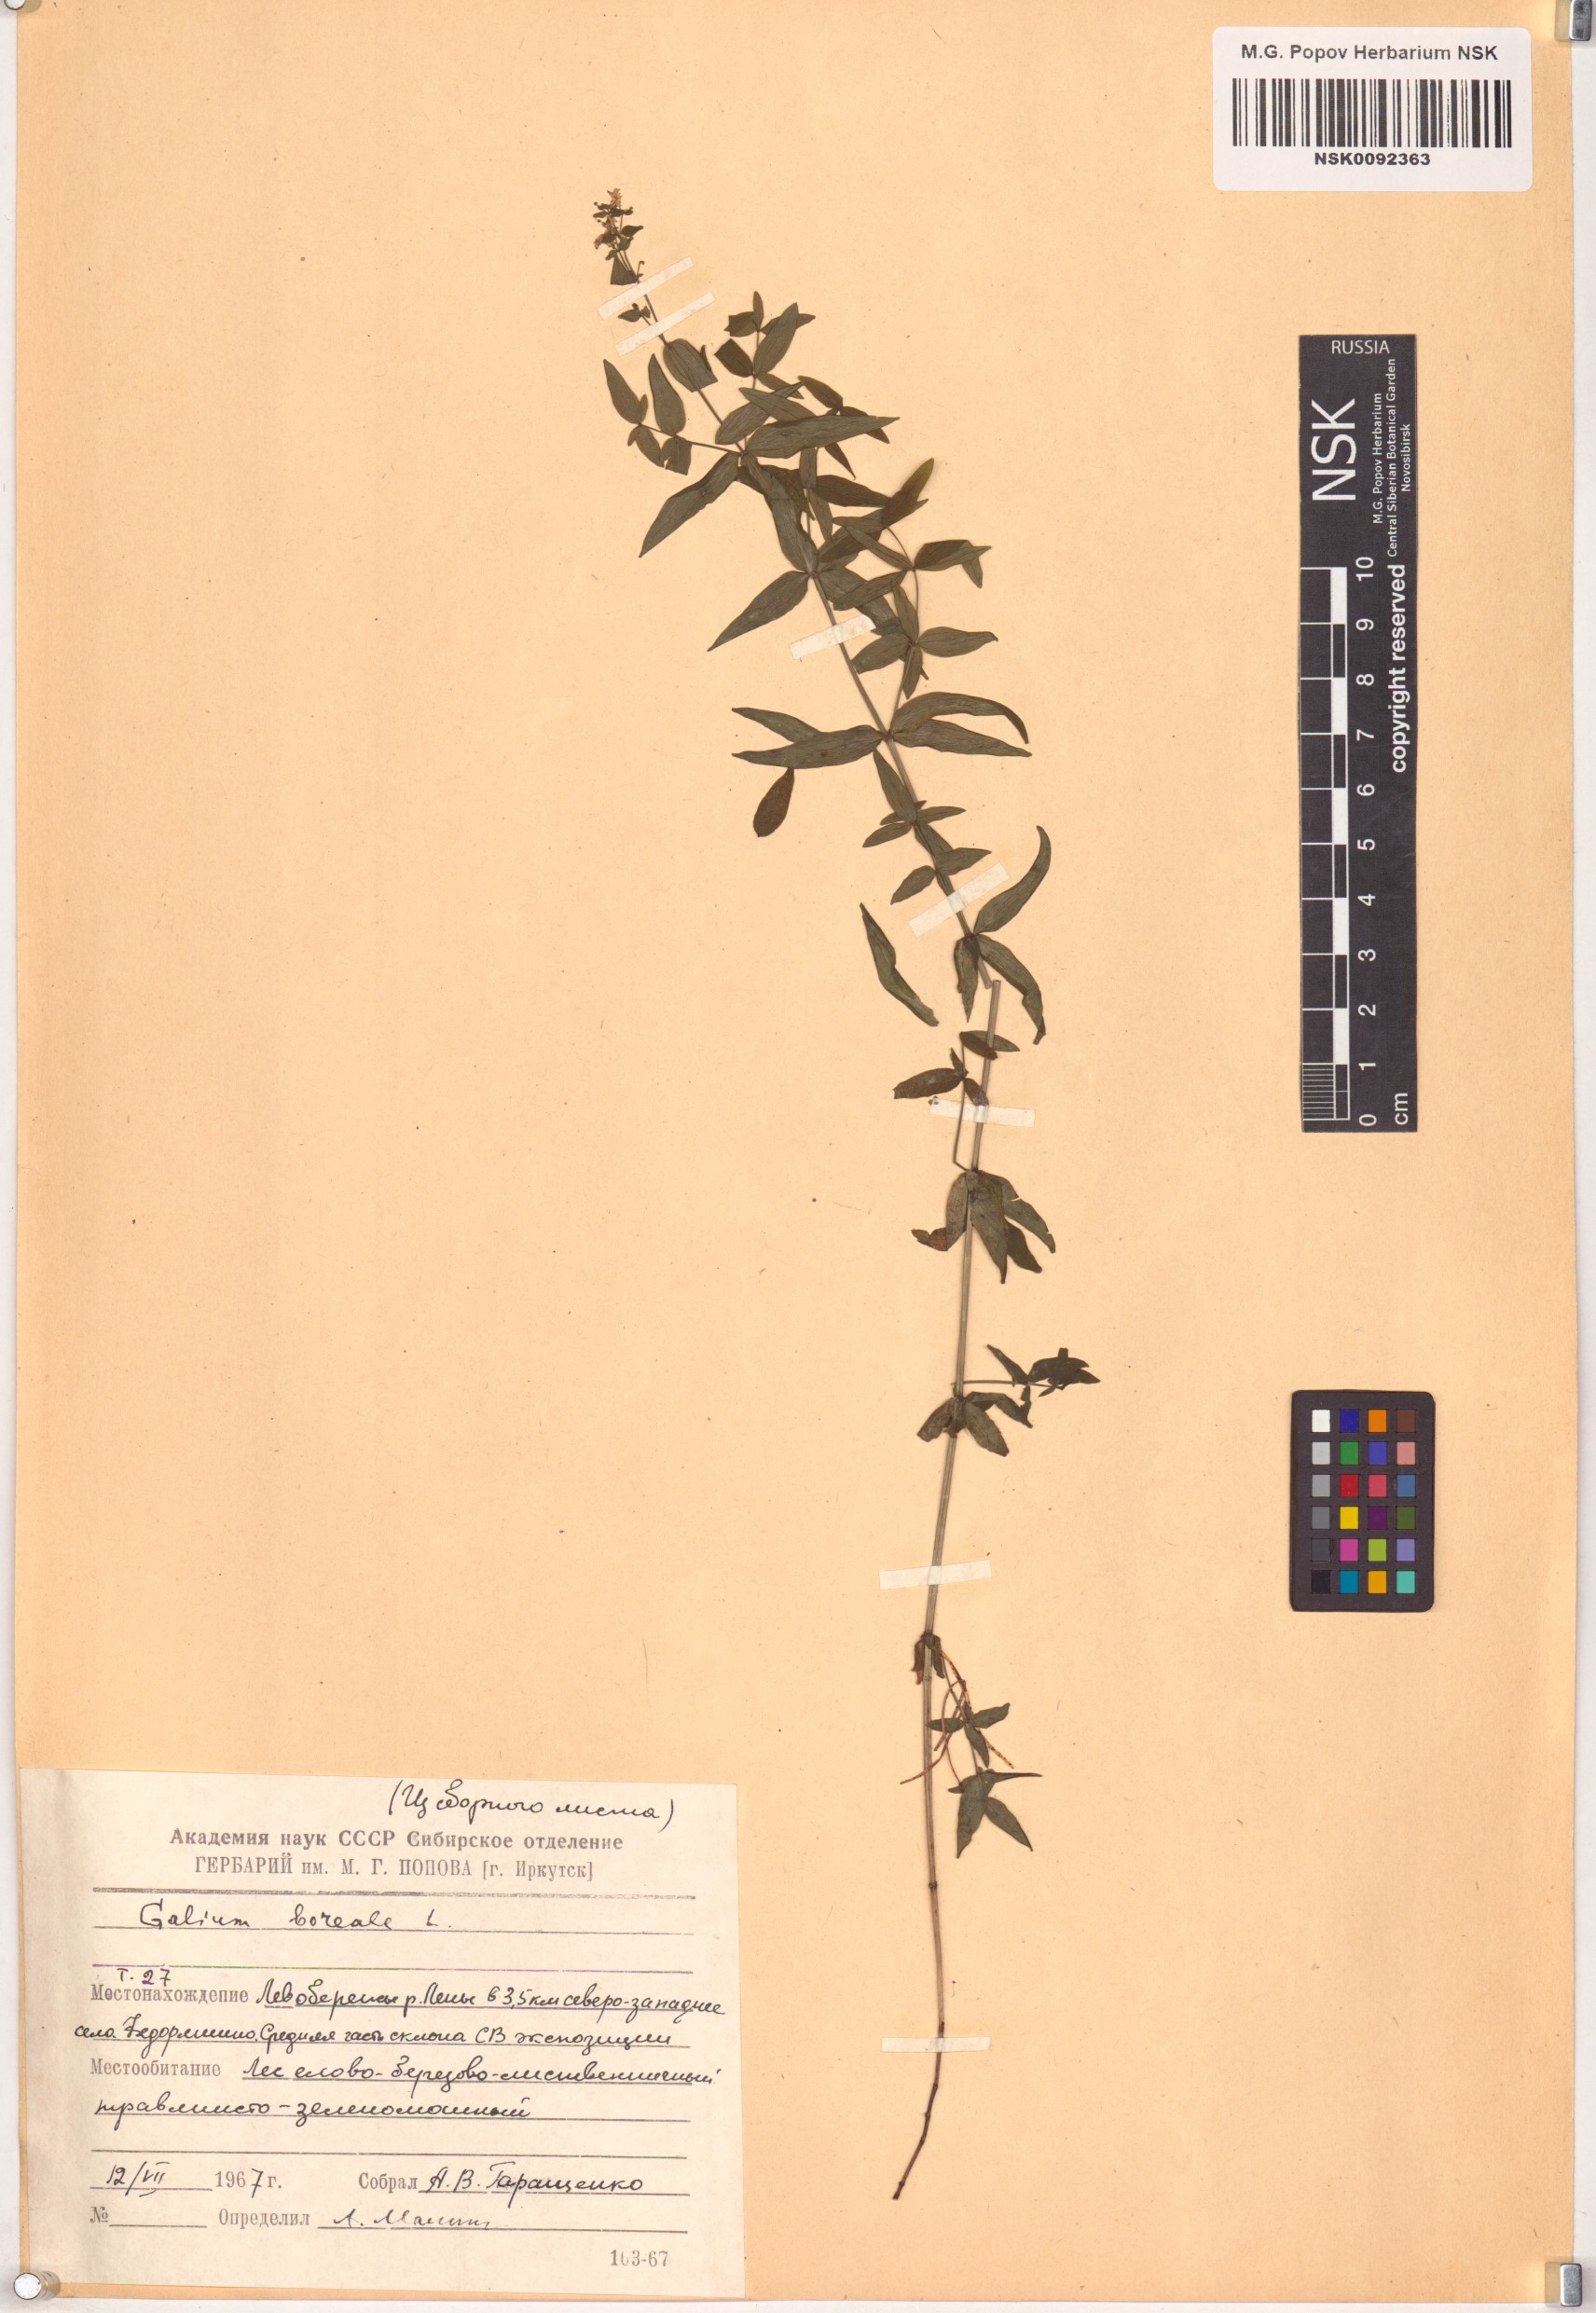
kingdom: Plantae
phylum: Tracheophyta
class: Magnoliopsida
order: Gentianales
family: Rubiaceae
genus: Galium
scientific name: Galium boreale
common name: Northern bedstraw
